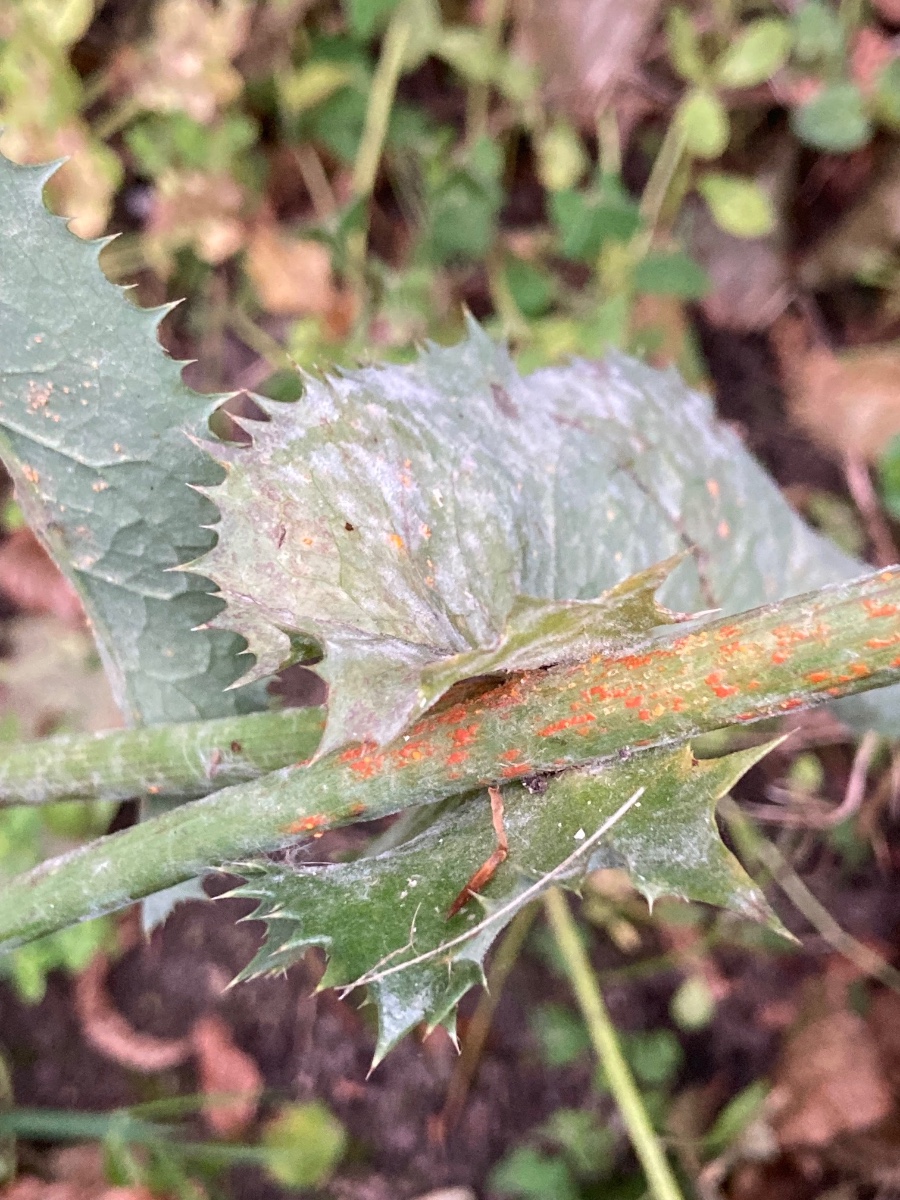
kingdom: Fungi
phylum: Basidiomycota
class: Pucciniomycetes
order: Pucciniales
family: Coleosporiaceae
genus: Coleosporium
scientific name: Coleosporium sonchi
